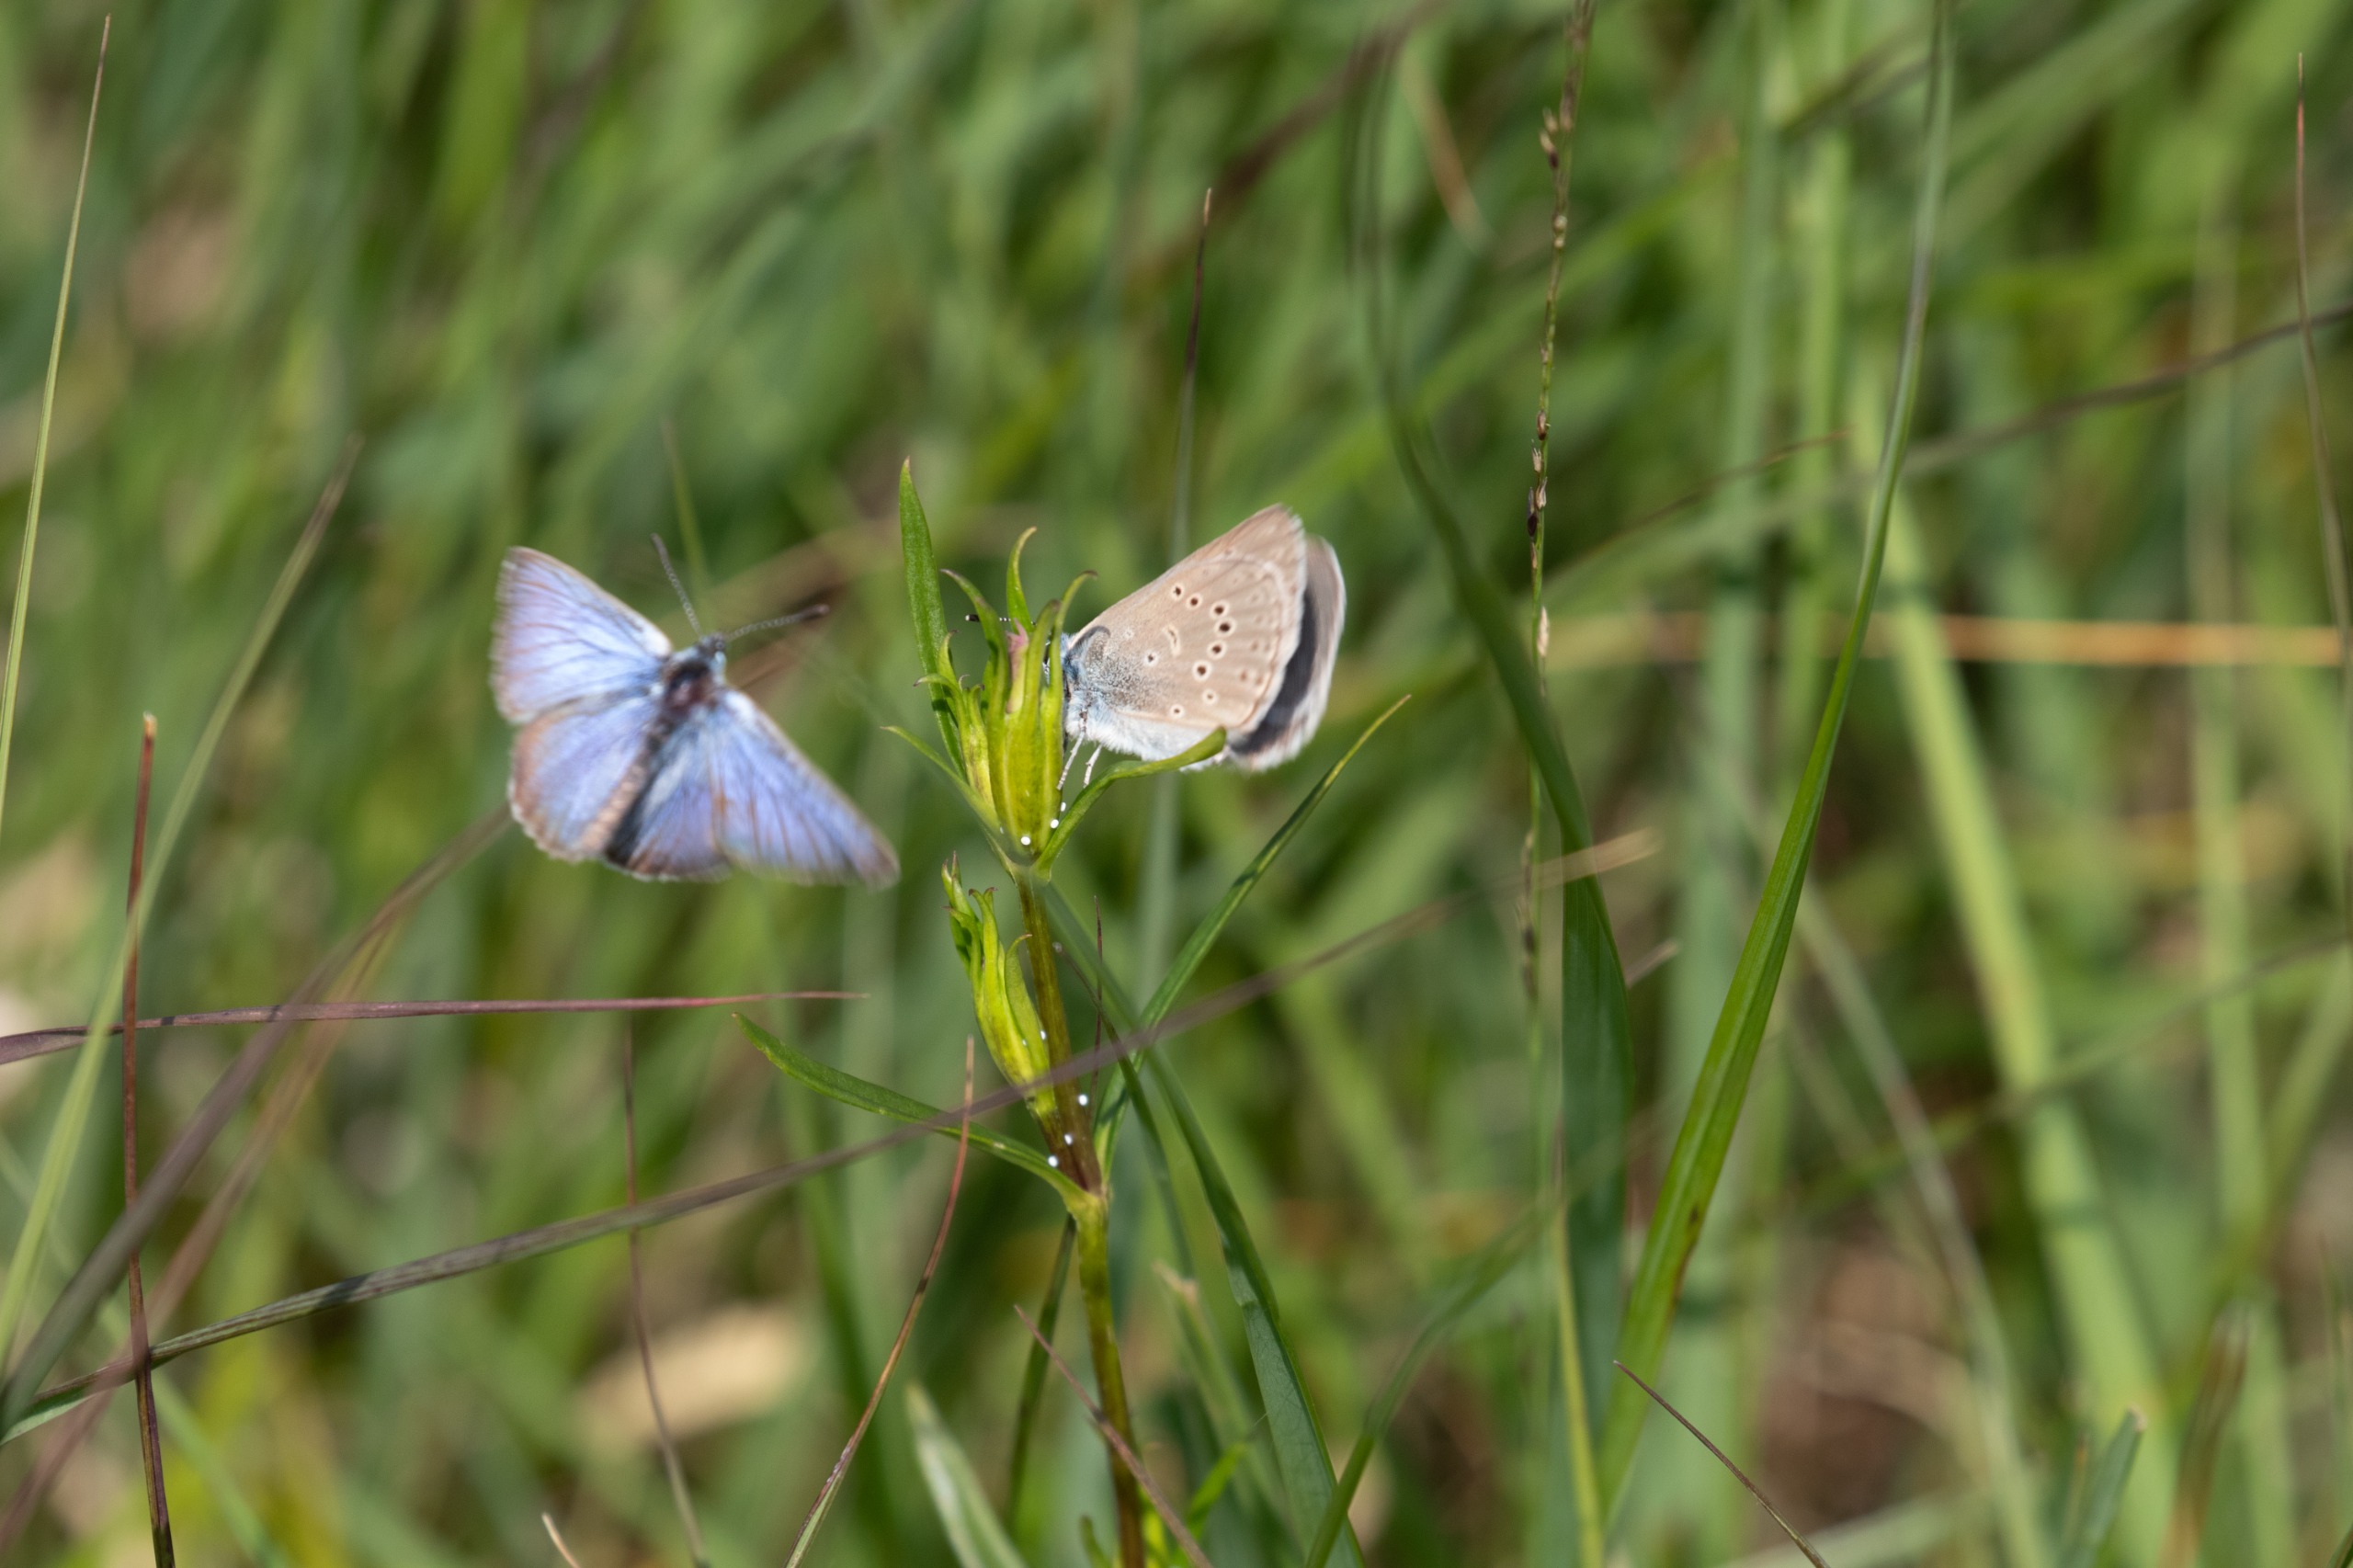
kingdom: Animalia
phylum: Arthropoda
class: Insecta
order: Lepidoptera
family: Lycaenidae
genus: Maculinea
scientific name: Maculinea alcon
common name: Ensianblåfugl
